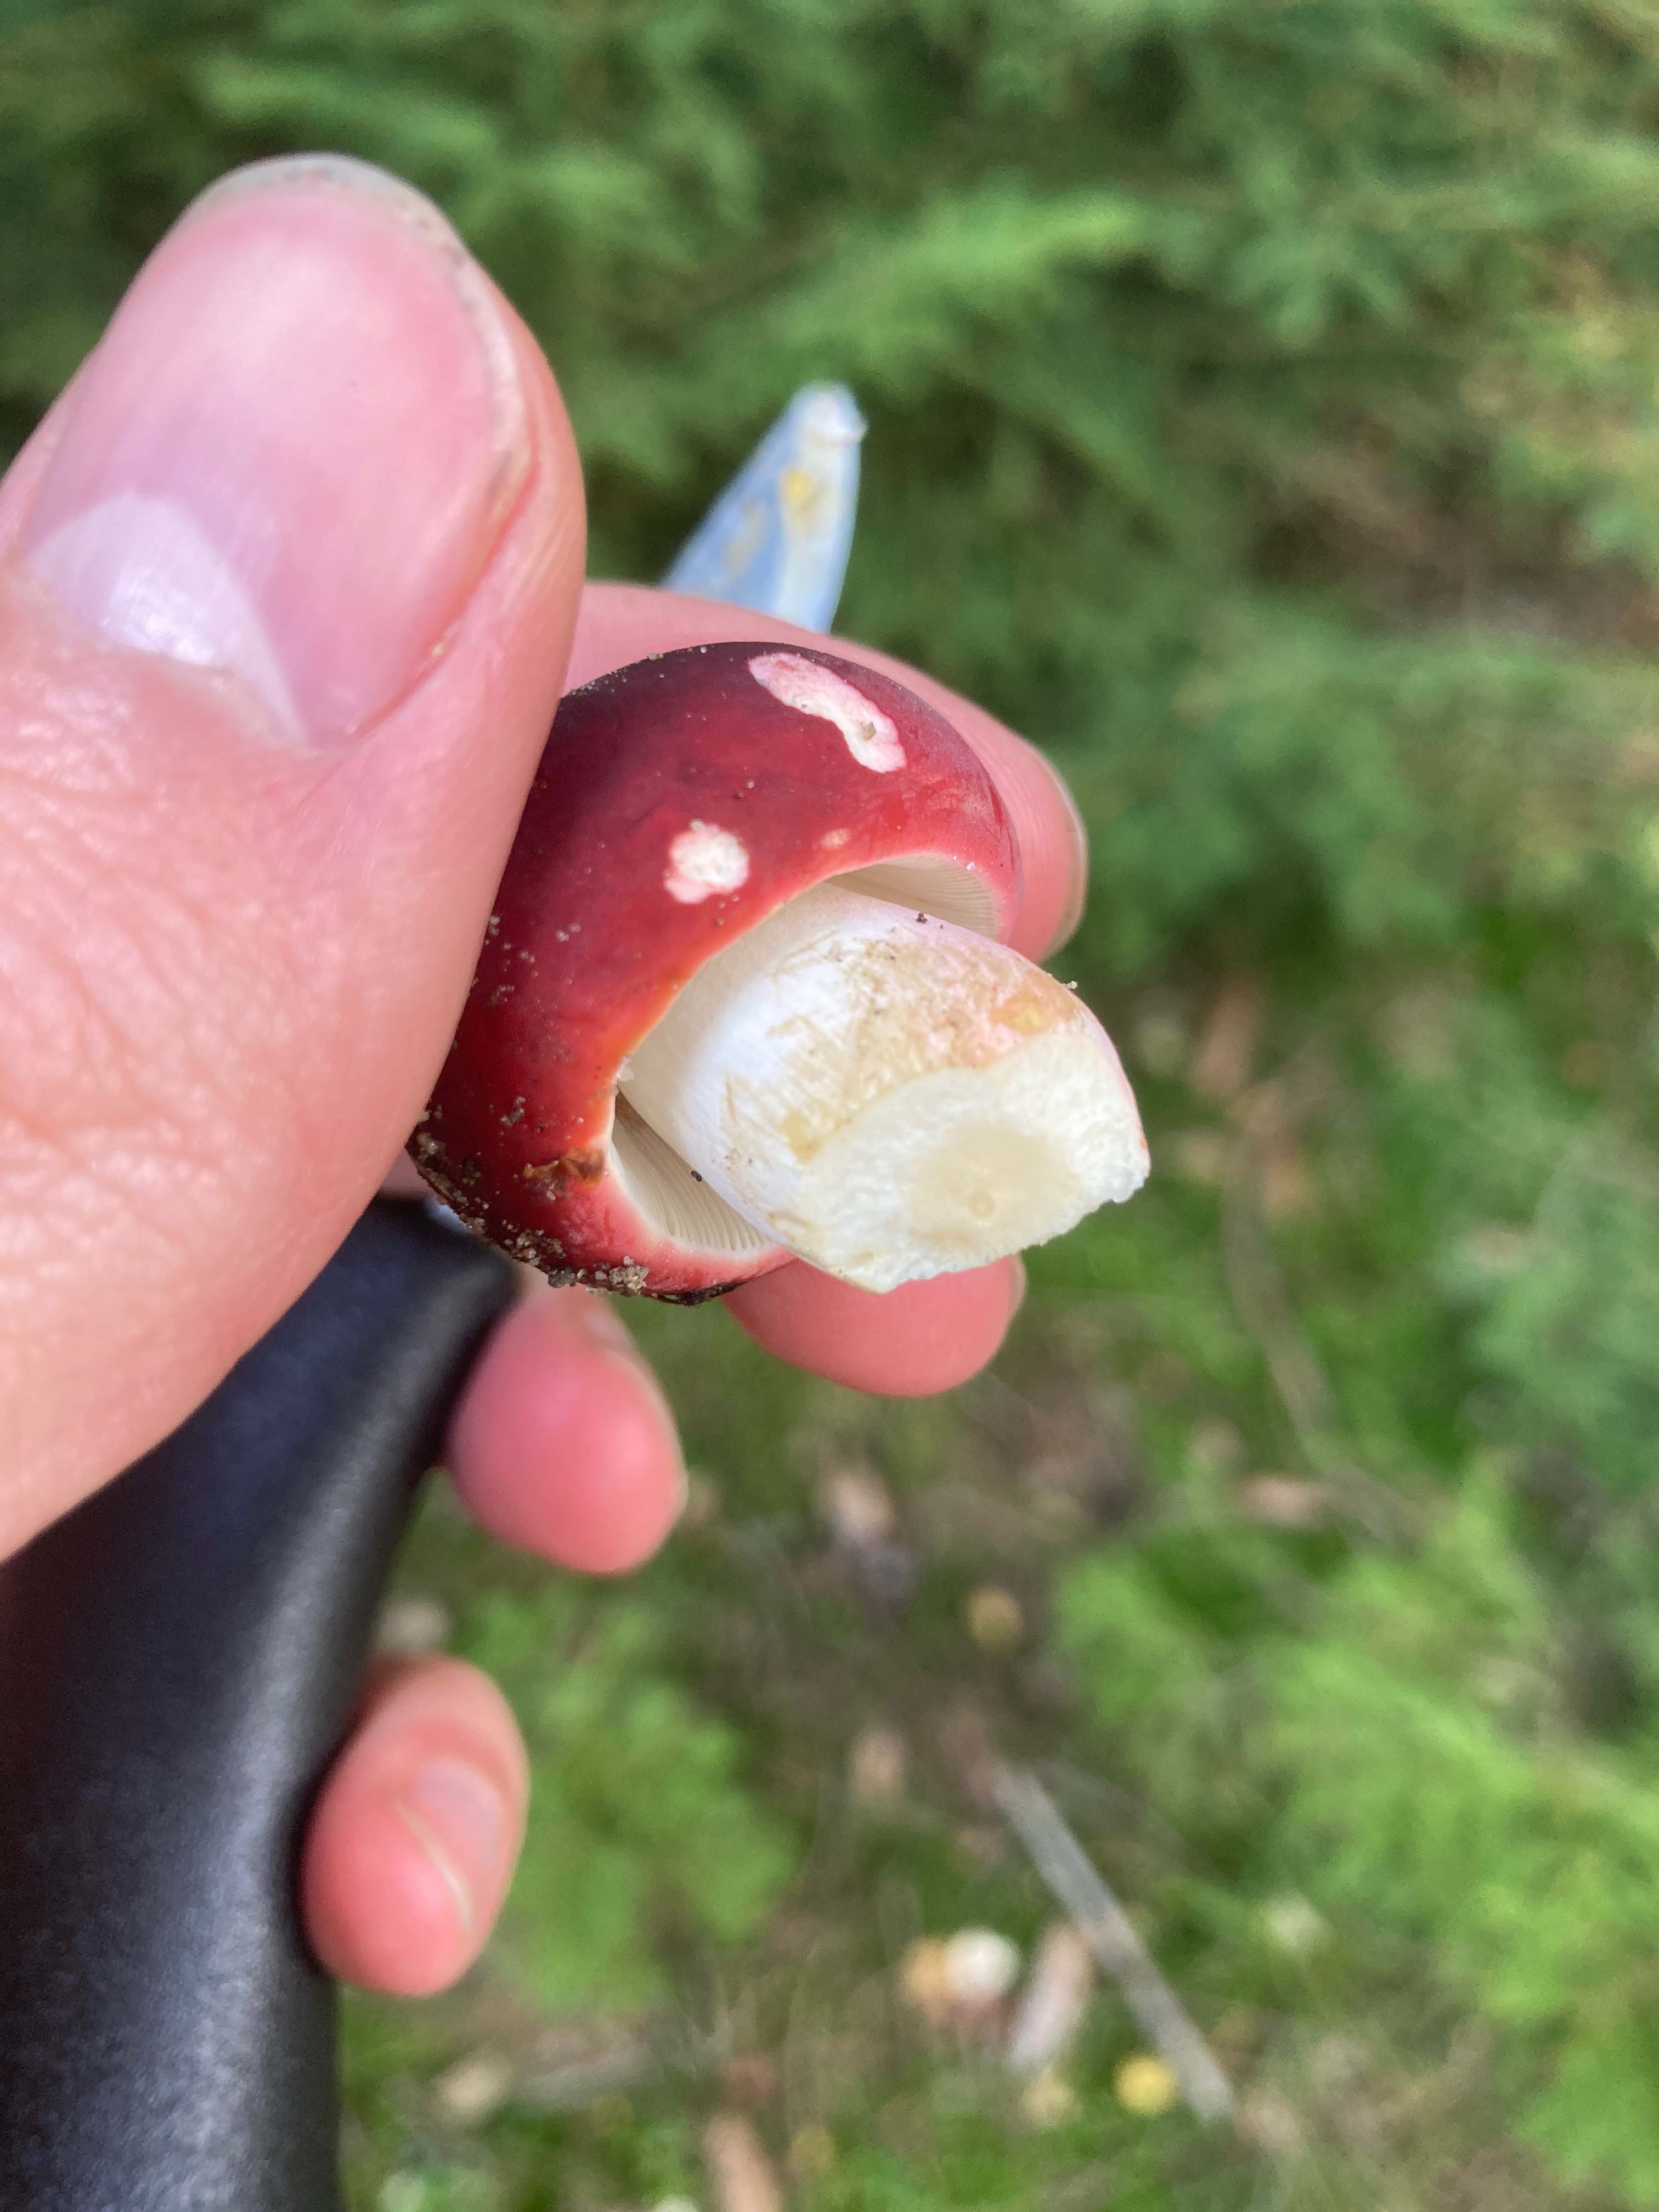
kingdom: Fungi
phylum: Basidiomycota
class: Agaricomycetes
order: Russulales
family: Russulaceae
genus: Russula
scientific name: Russula xerampelina
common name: hummer-skørhat
